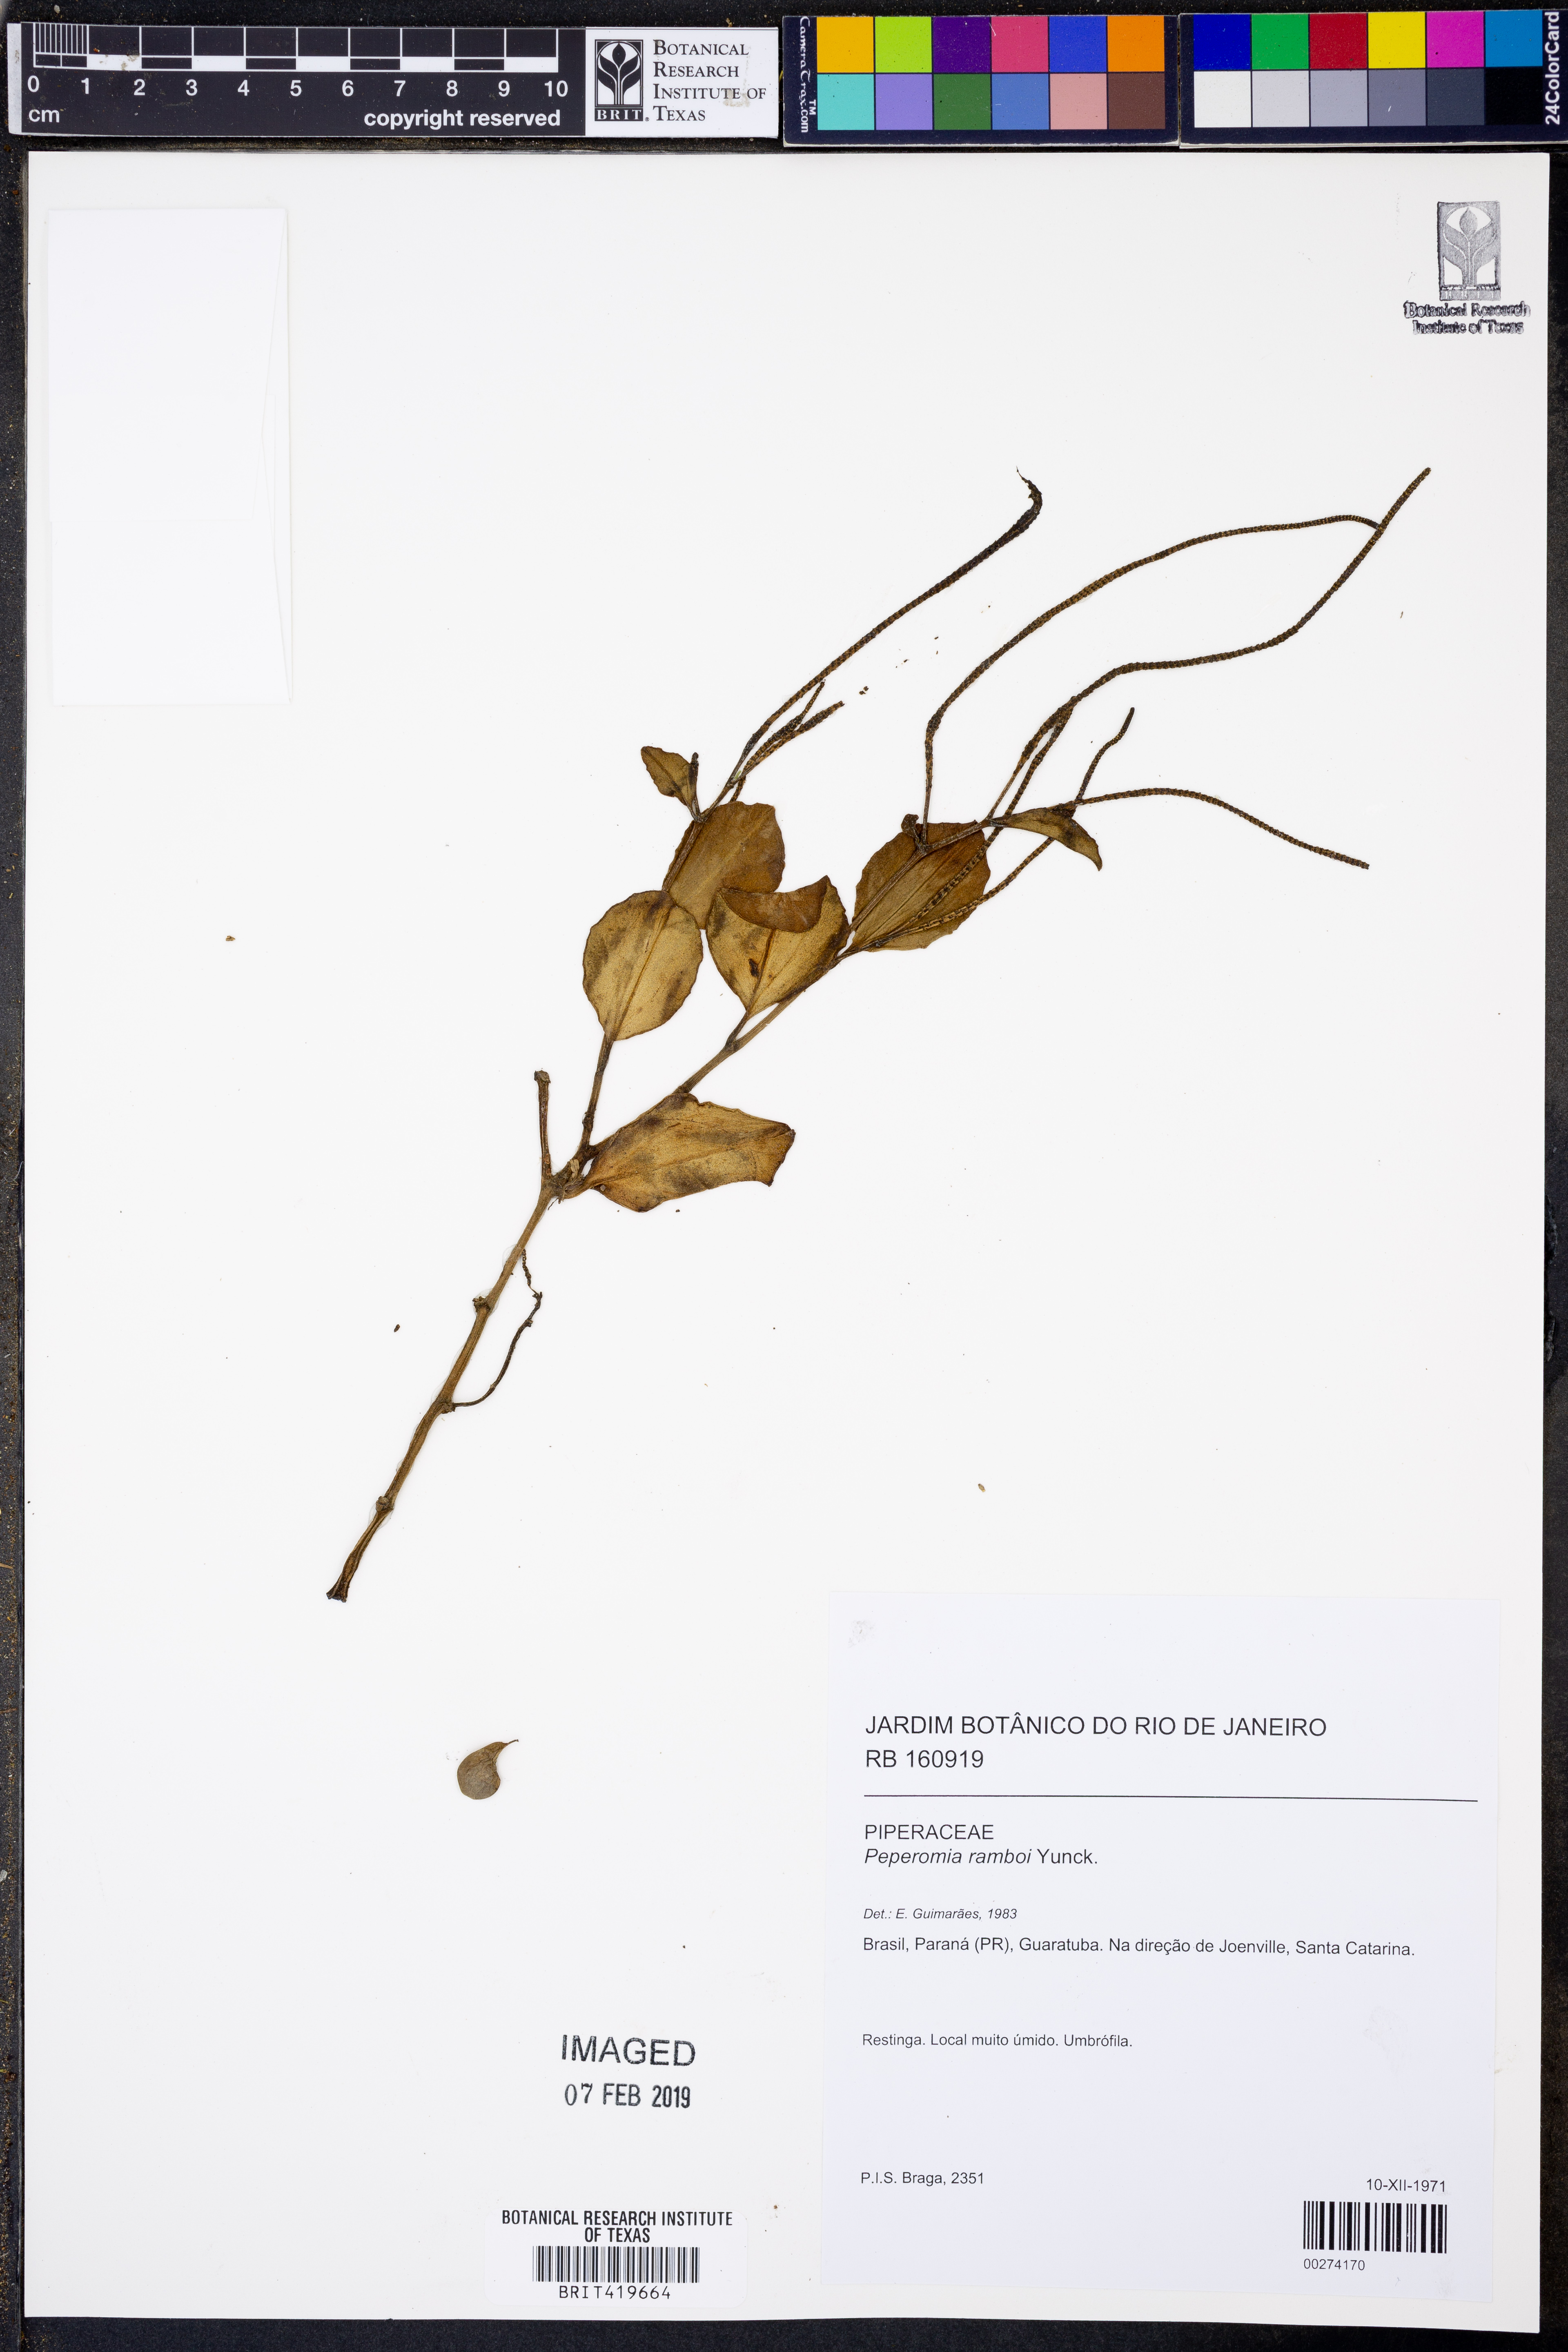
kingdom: Plantae
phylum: Tracheophyta
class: Magnoliopsida
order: Piperales
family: Piperaceae
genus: Peperomia
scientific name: Peperomia ramboi
